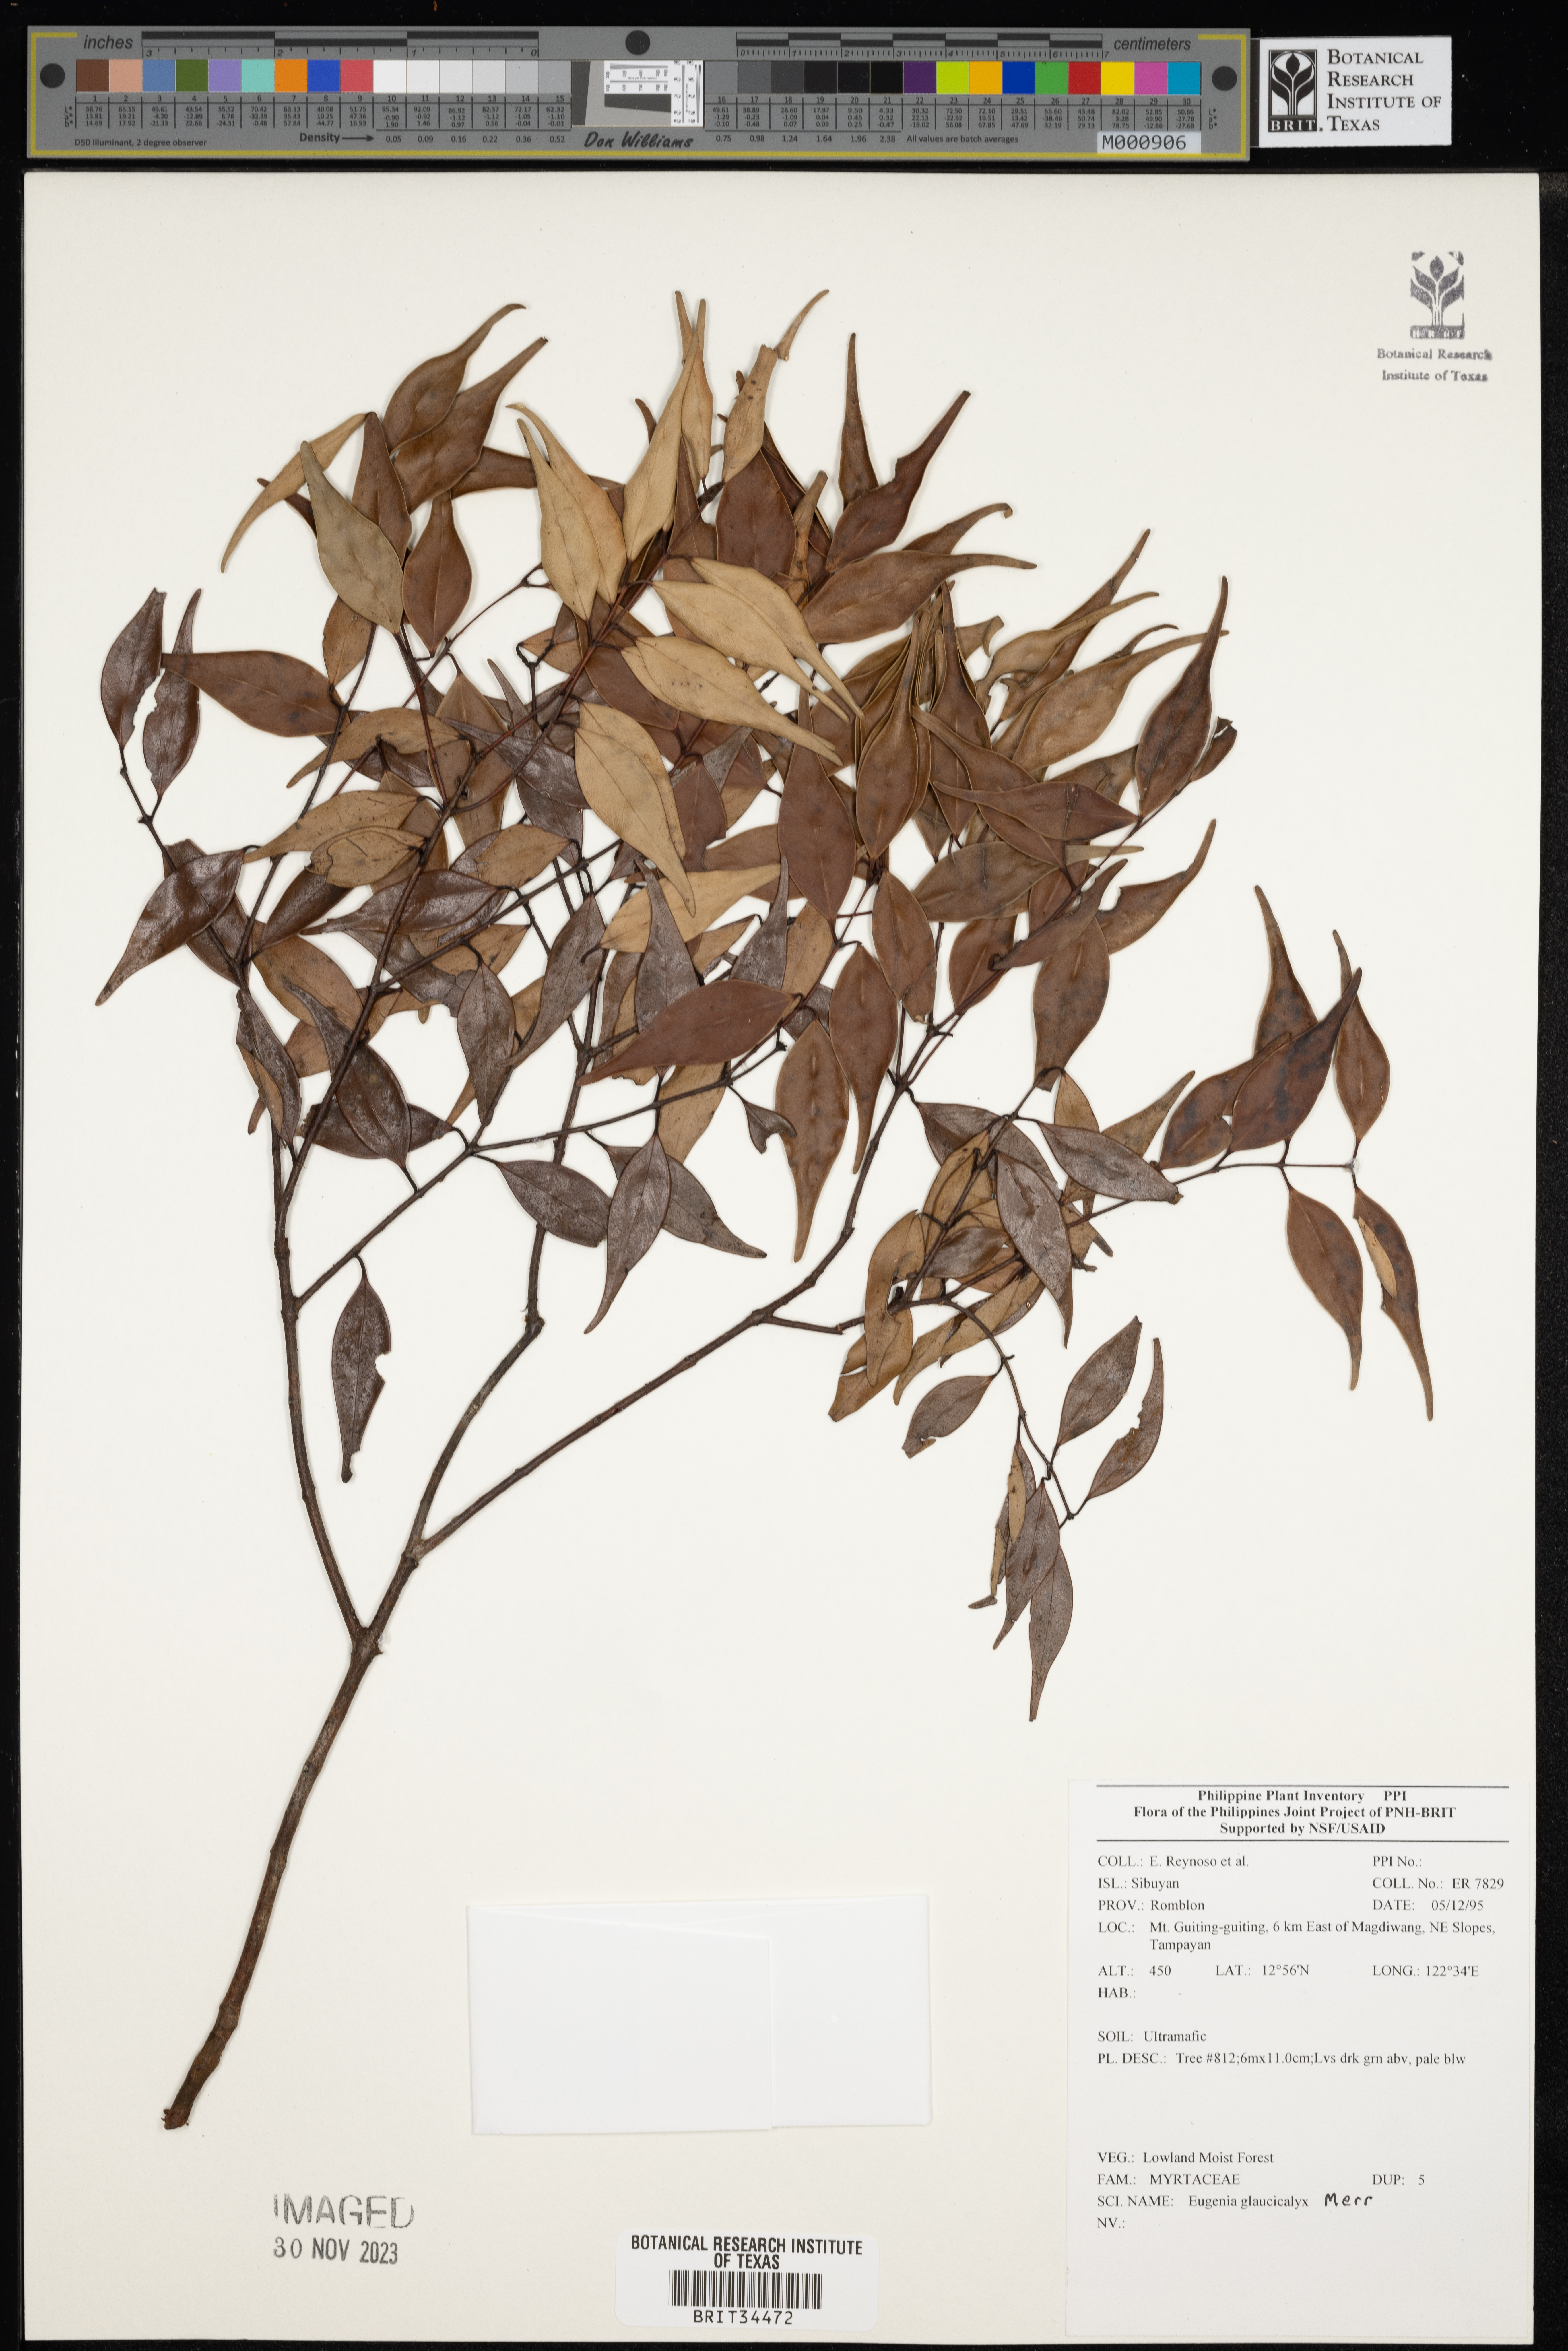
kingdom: Plantae
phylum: Tracheophyta
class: Magnoliopsida
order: Myrtales
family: Myrtaceae
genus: Eugenia
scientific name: Eugenia
